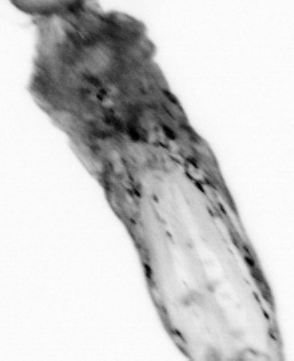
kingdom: Animalia
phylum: Arthropoda
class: Maxillopoda
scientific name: Maxillopoda
